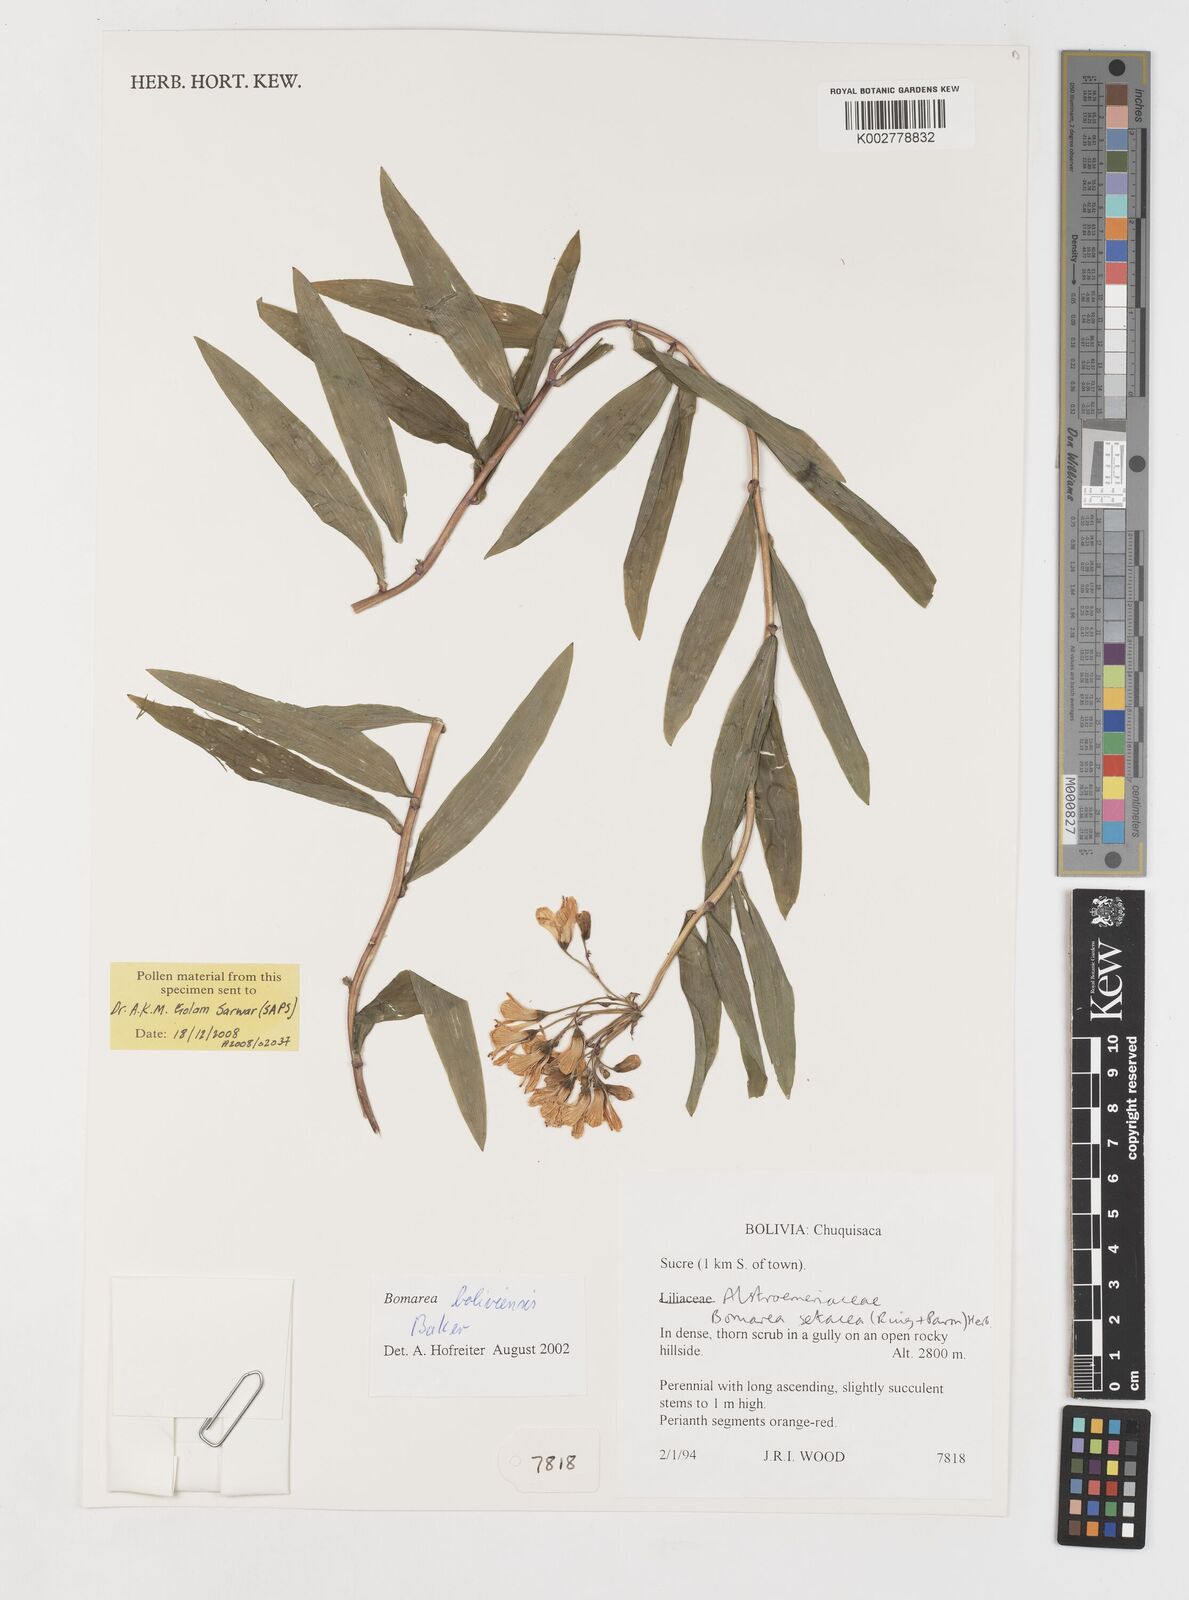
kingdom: Plantae
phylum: Tracheophyta
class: Liliopsida
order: Liliales
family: Alstroemeriaceae
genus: Bomarea
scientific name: Bomarea boliviensis
